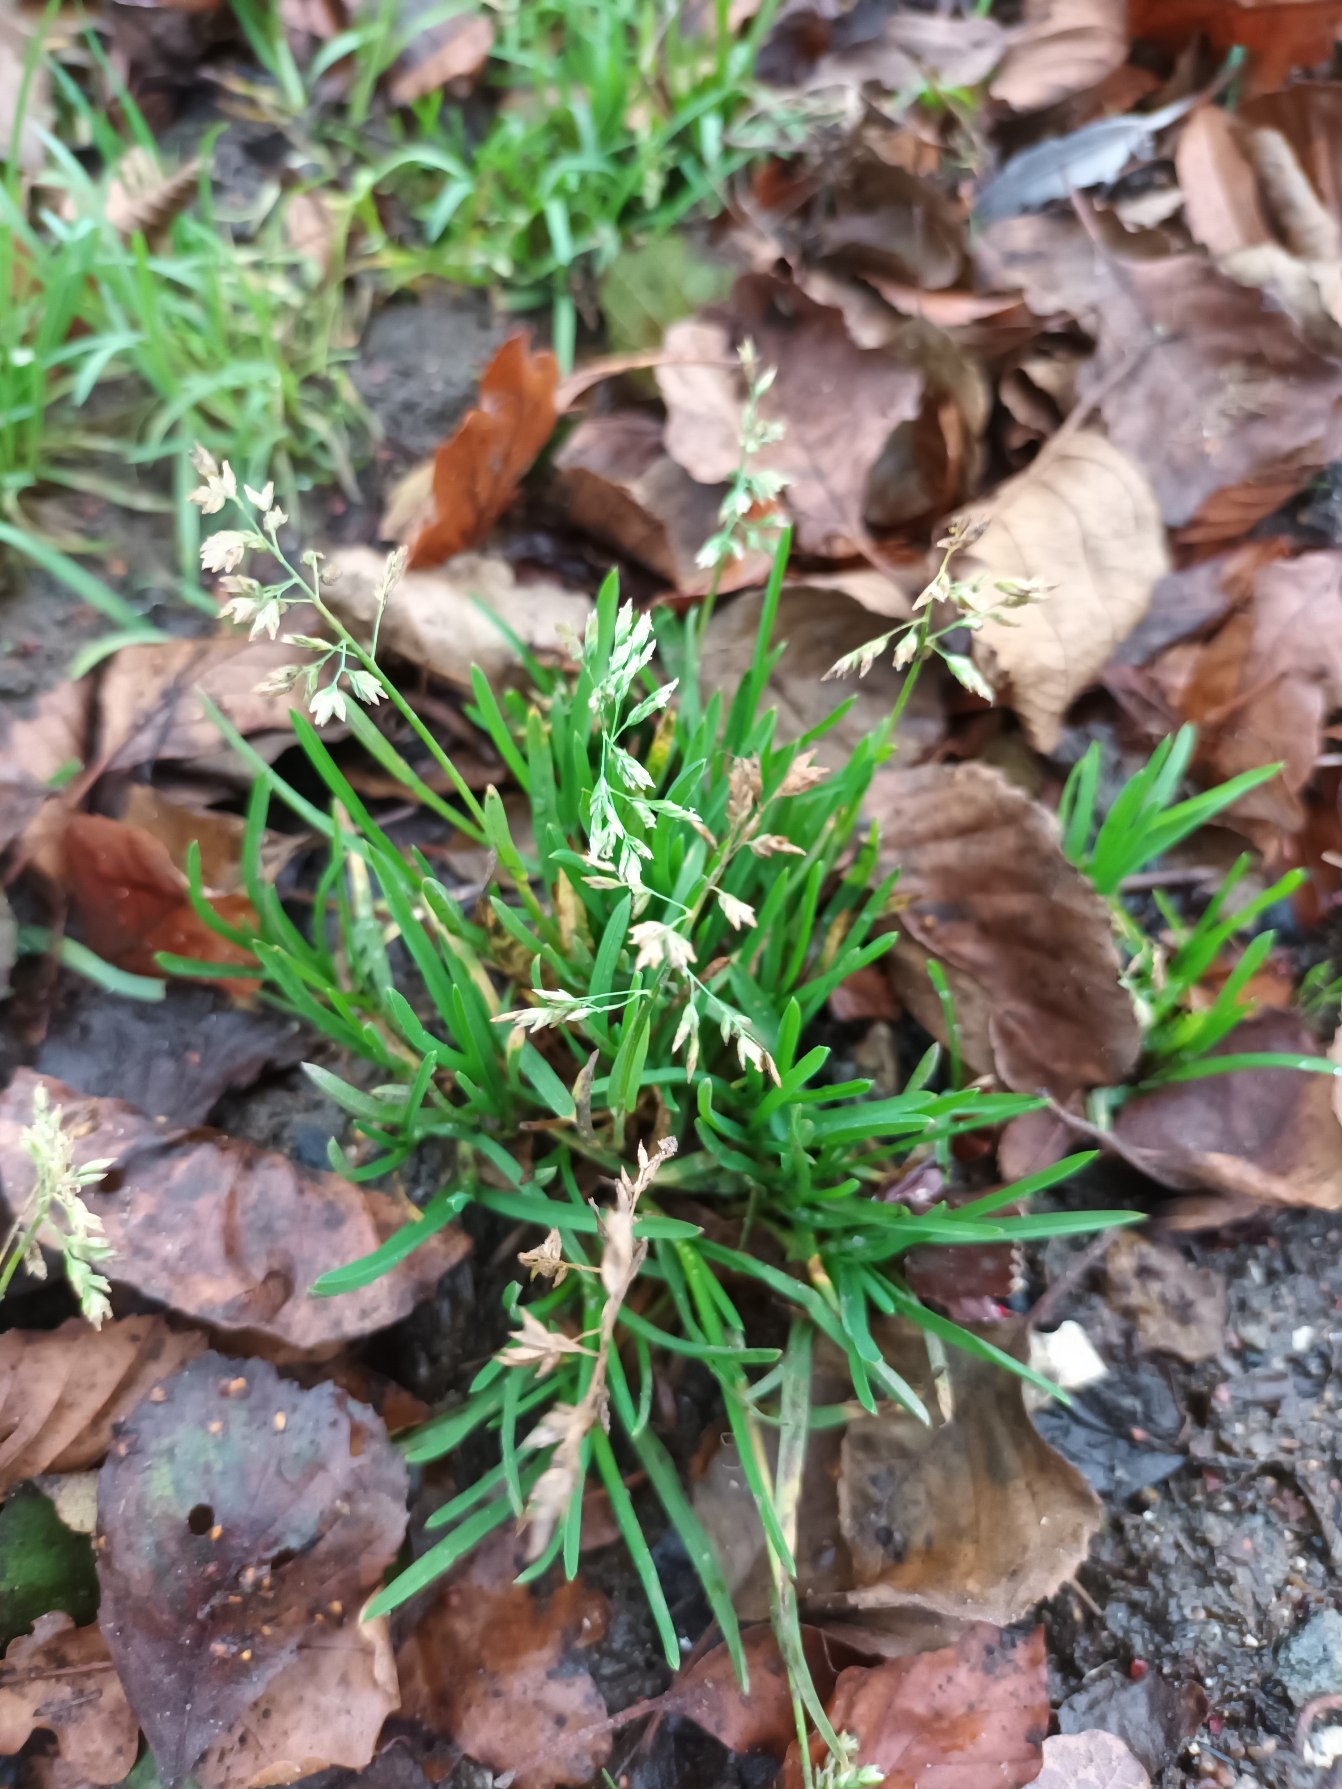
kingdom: Plantae
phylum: Tracheophyta
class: Liliopsida
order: Poales
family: Poaceae
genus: Poa
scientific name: Poa annua
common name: Enårig rapgræs
